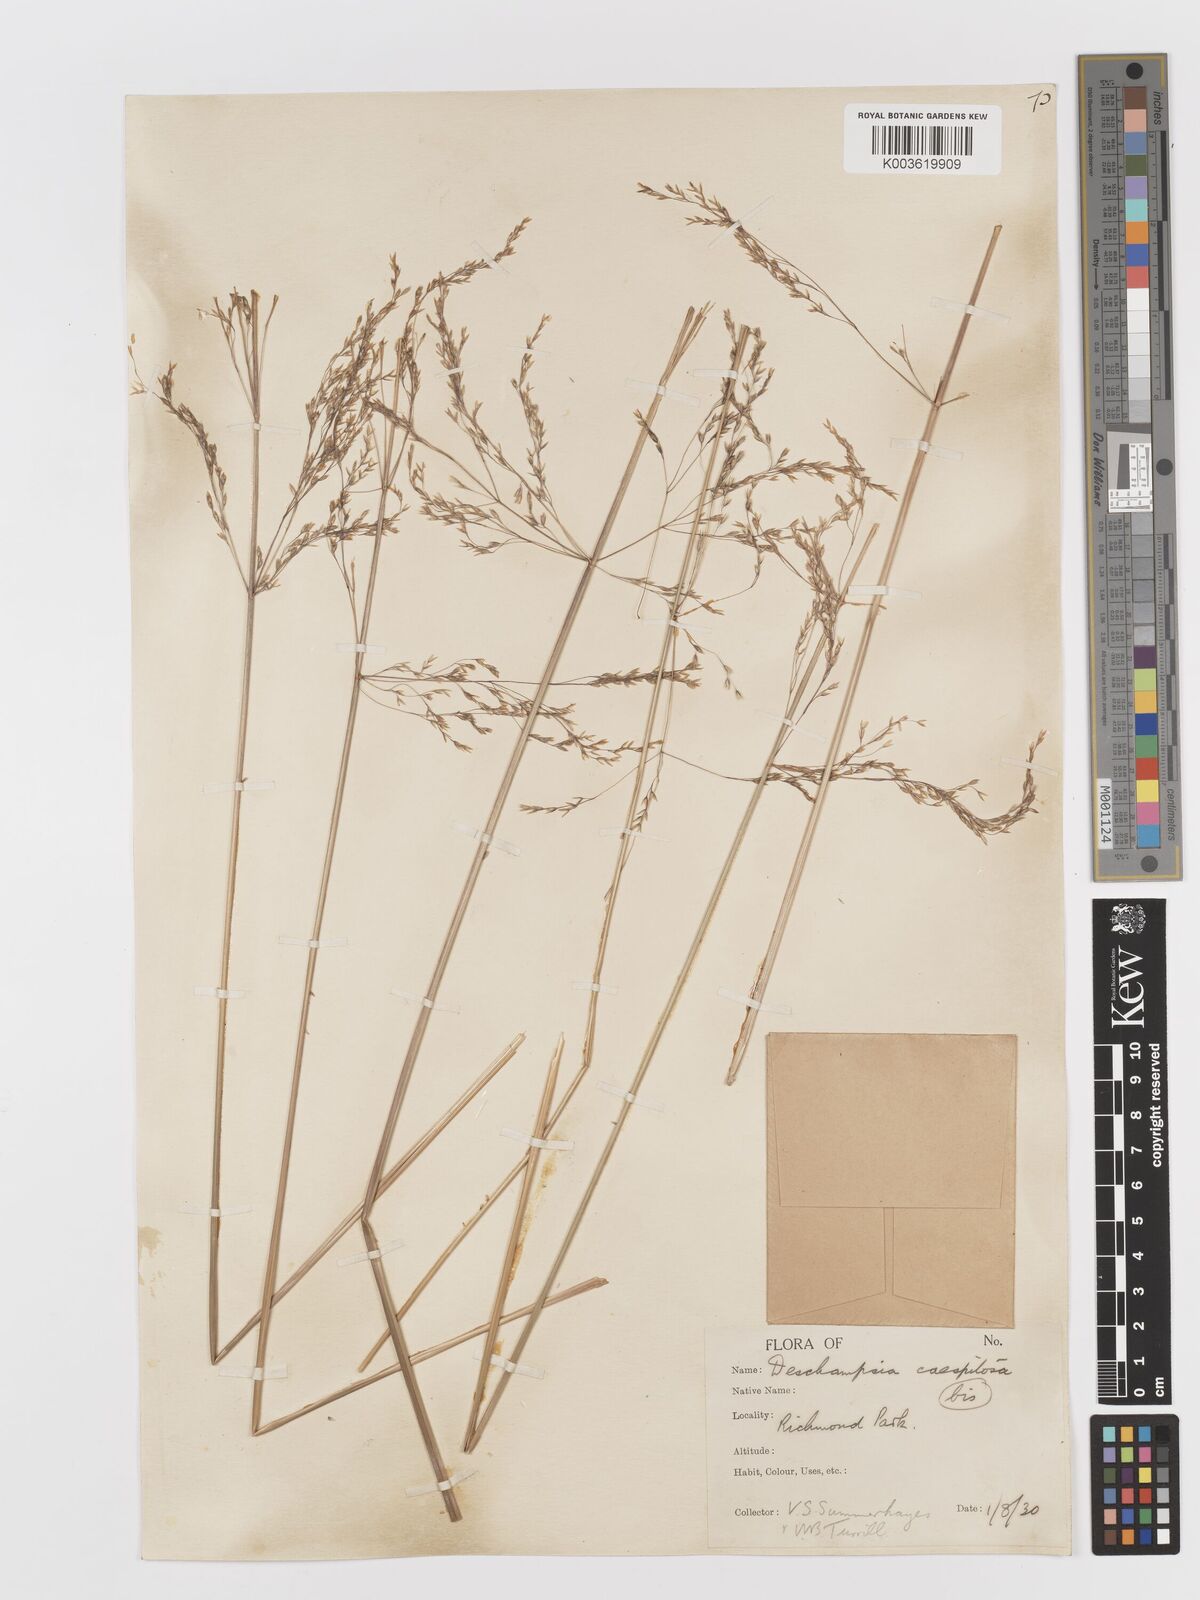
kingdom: Plantae
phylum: Tracheophyta
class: Liliopsida
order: Poales
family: Poaceae
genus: Deschampsia
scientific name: Deschampsia
